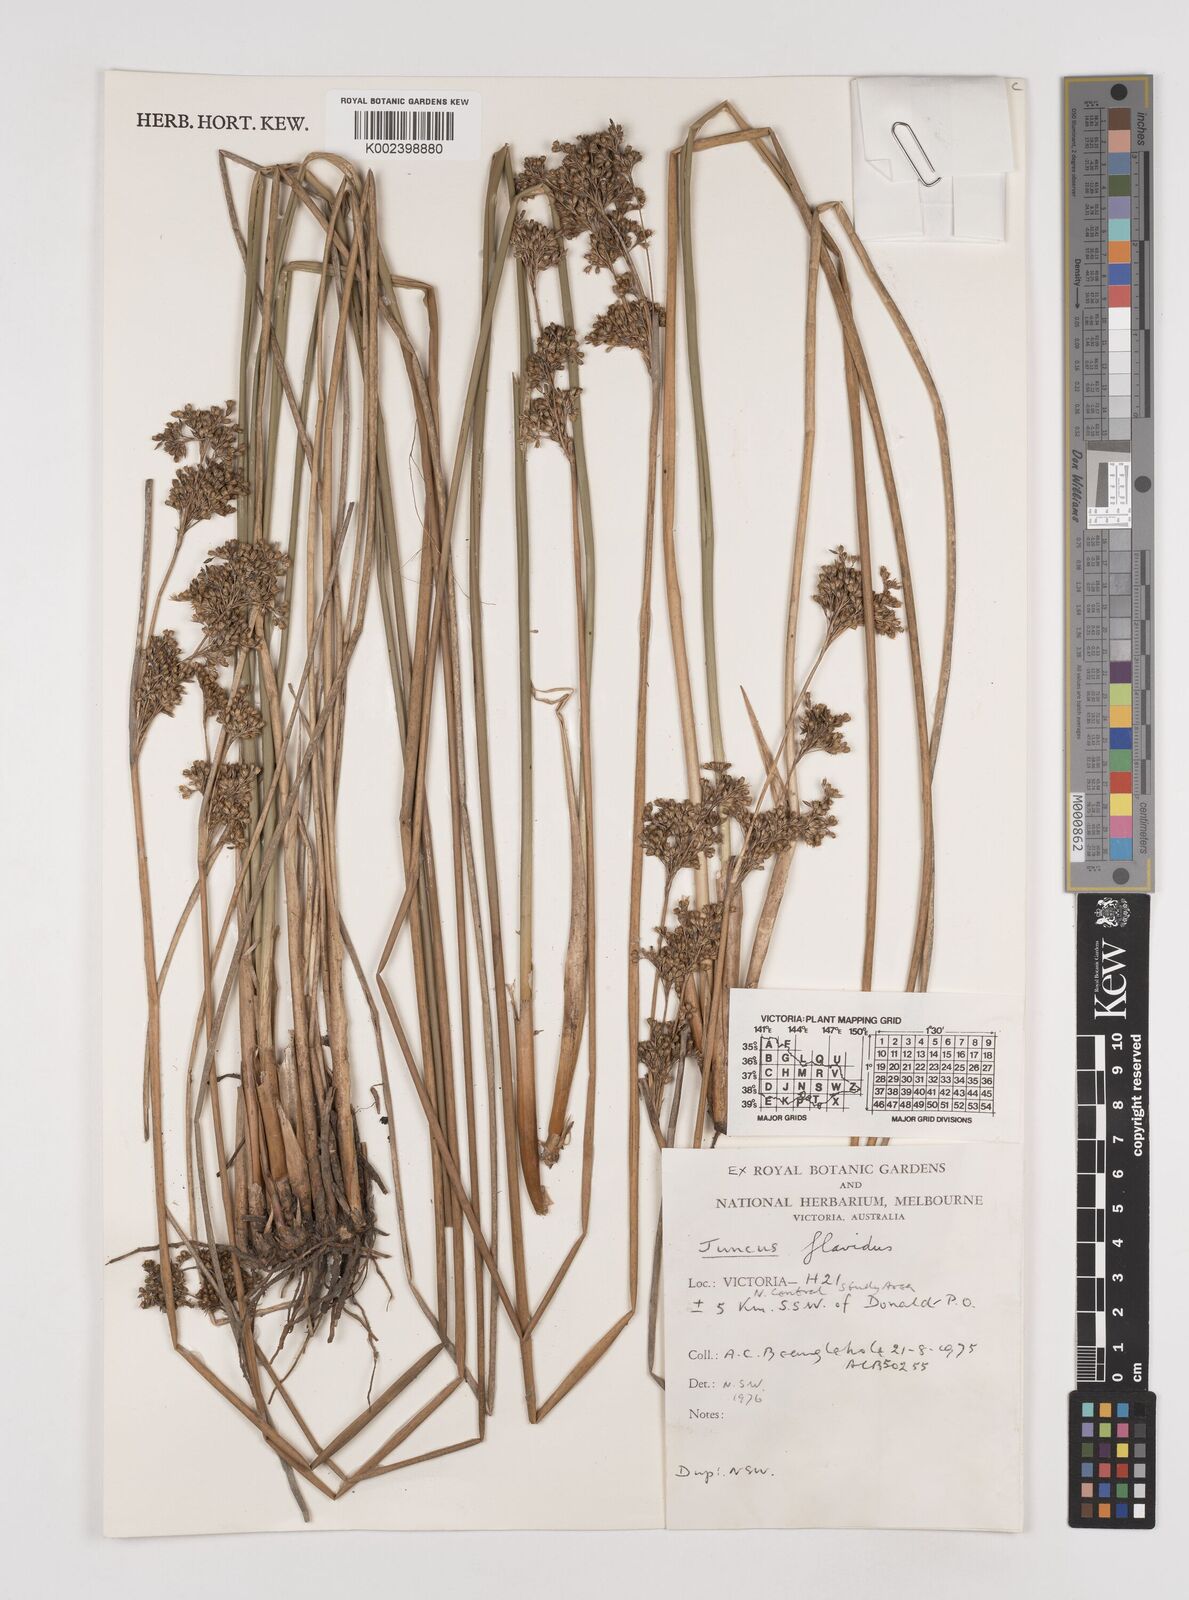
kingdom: Plantae
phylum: Tracheophyta
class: Liliopsida
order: Poales
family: Juncaceae
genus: Juncus
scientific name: Juncus flavidus
